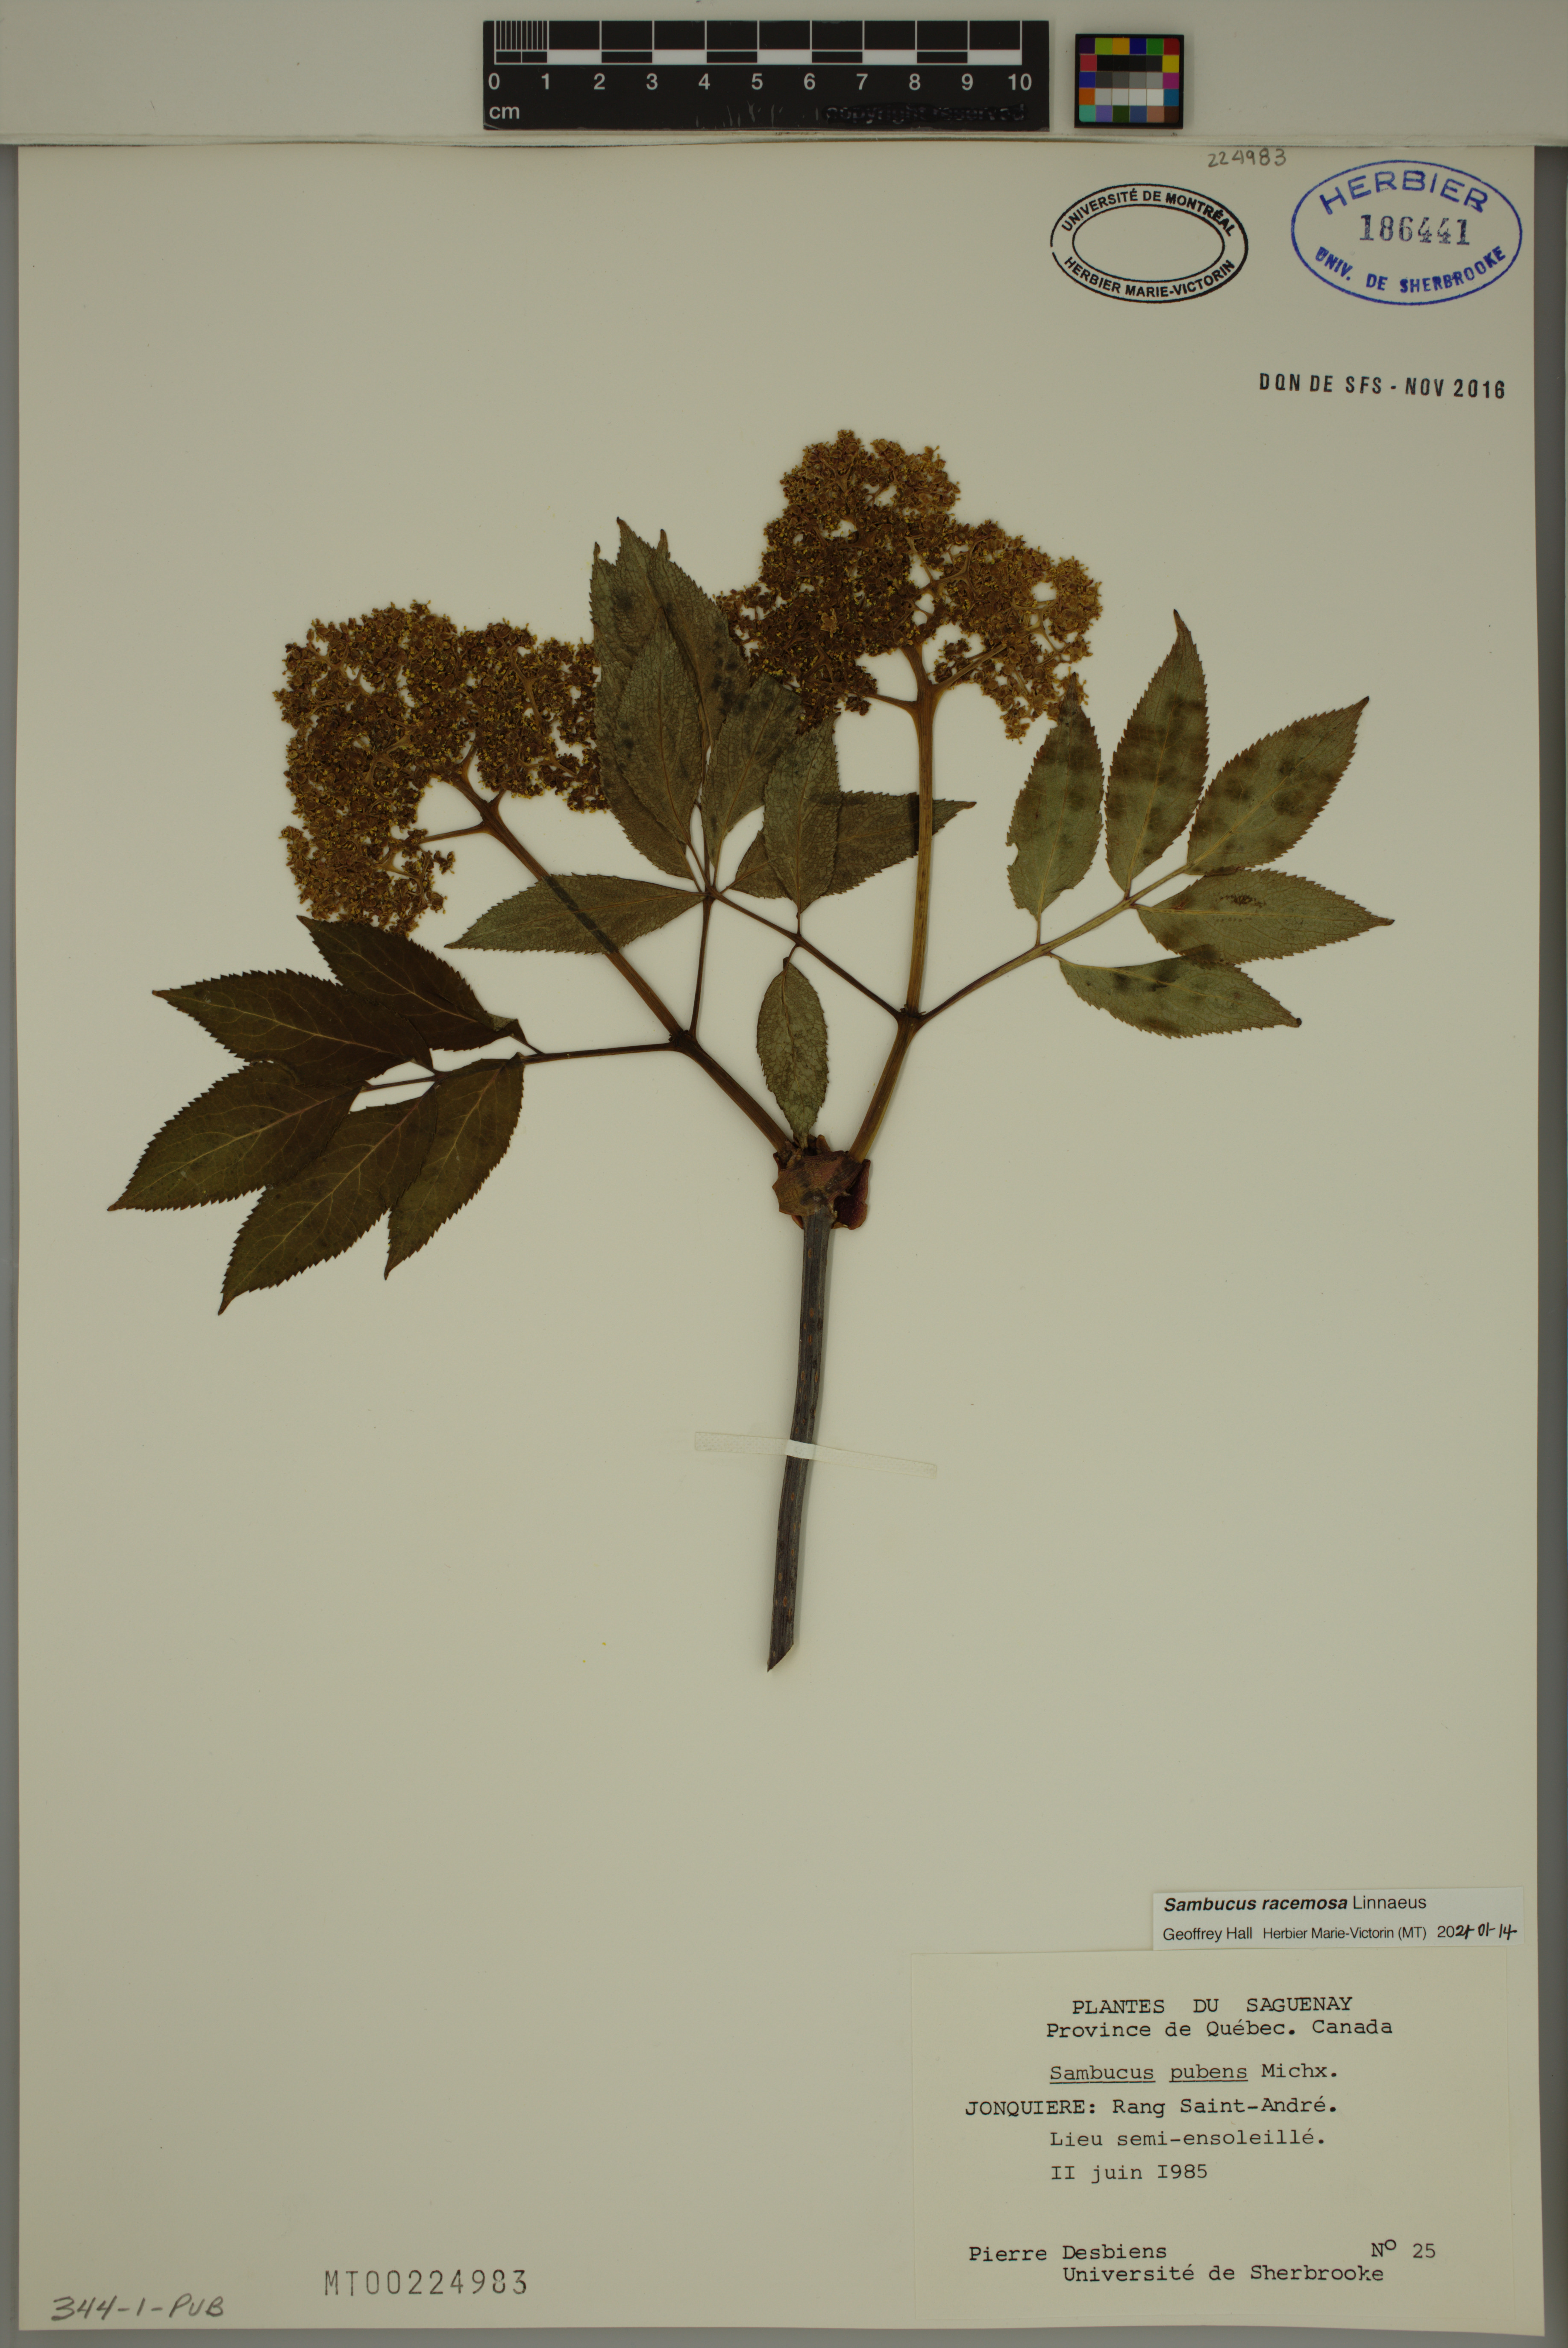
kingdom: Plantae
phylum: Tracheophyta
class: Magnoliopsida
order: Dipsacales
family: Viburnaceae
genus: Sambucus
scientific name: Sambucus racemosa
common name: Red-berried elder
